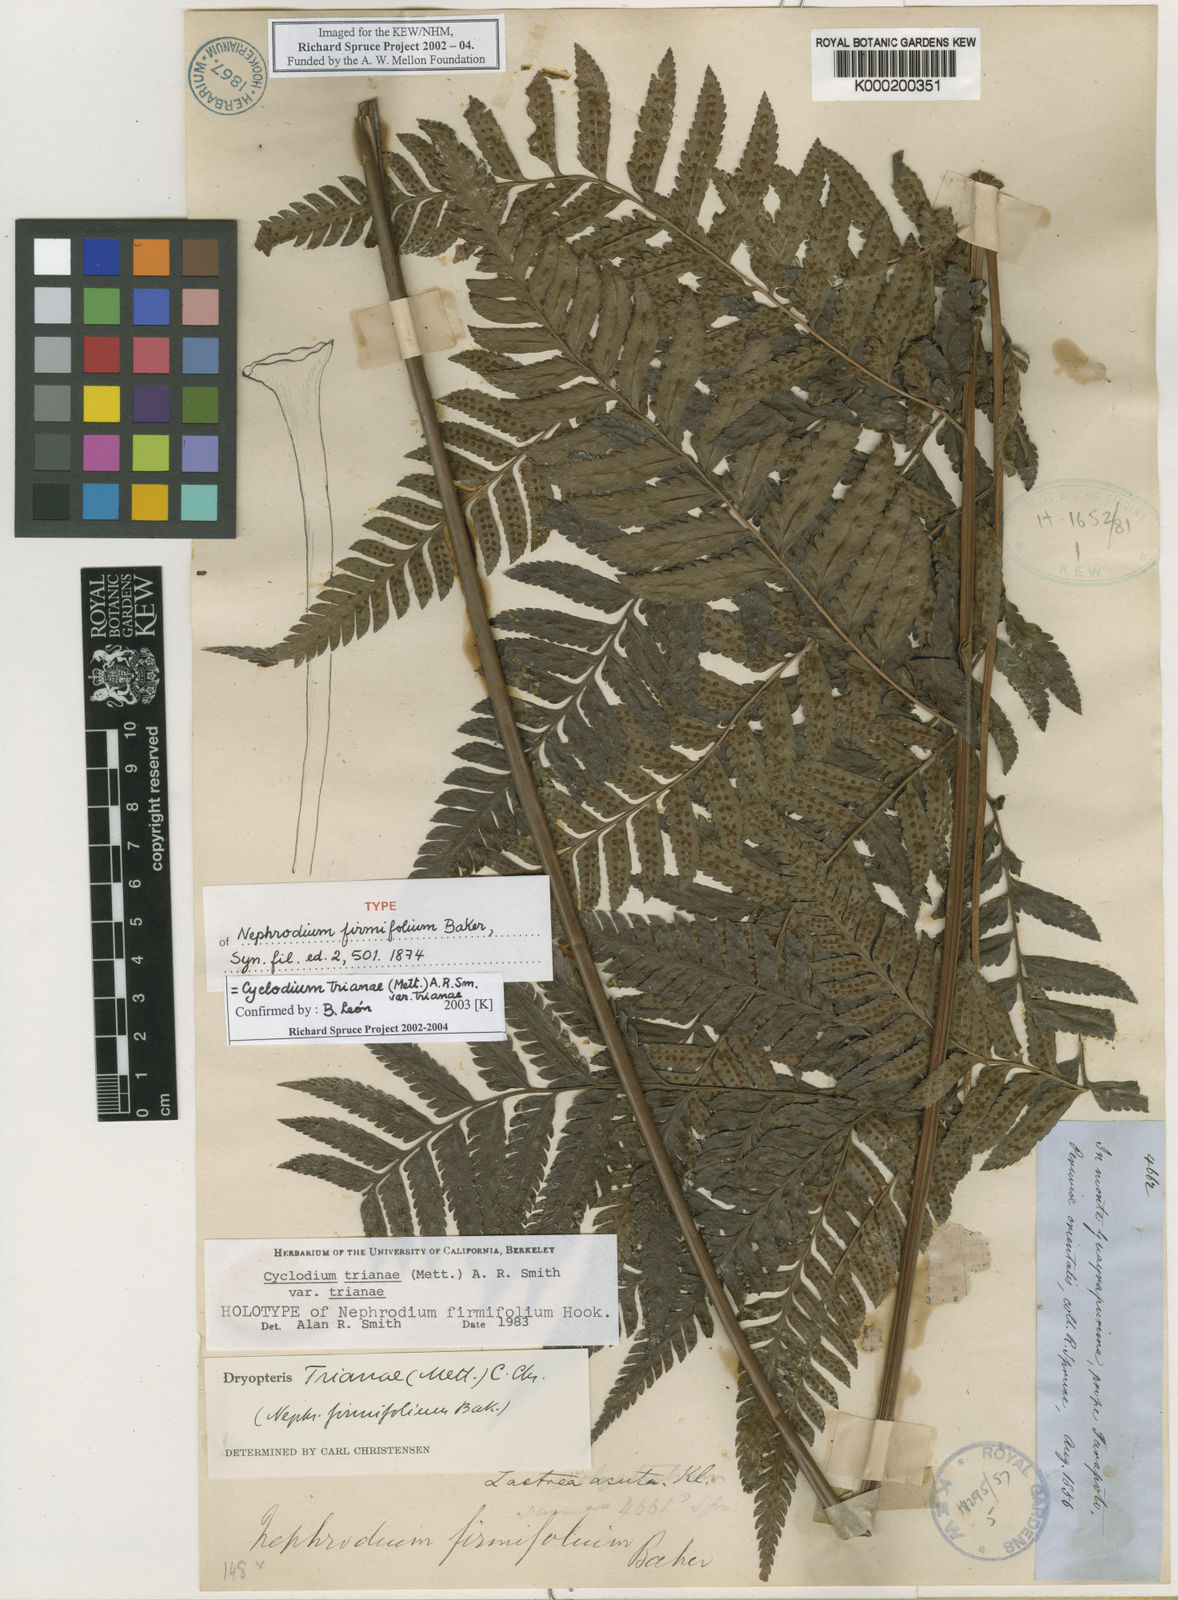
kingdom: Plantae
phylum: Tracheophyta
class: Polypodiopsida
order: Polypodiales
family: Dryopteridaceae
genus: Cyclodium
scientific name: Cyclodium trianae
